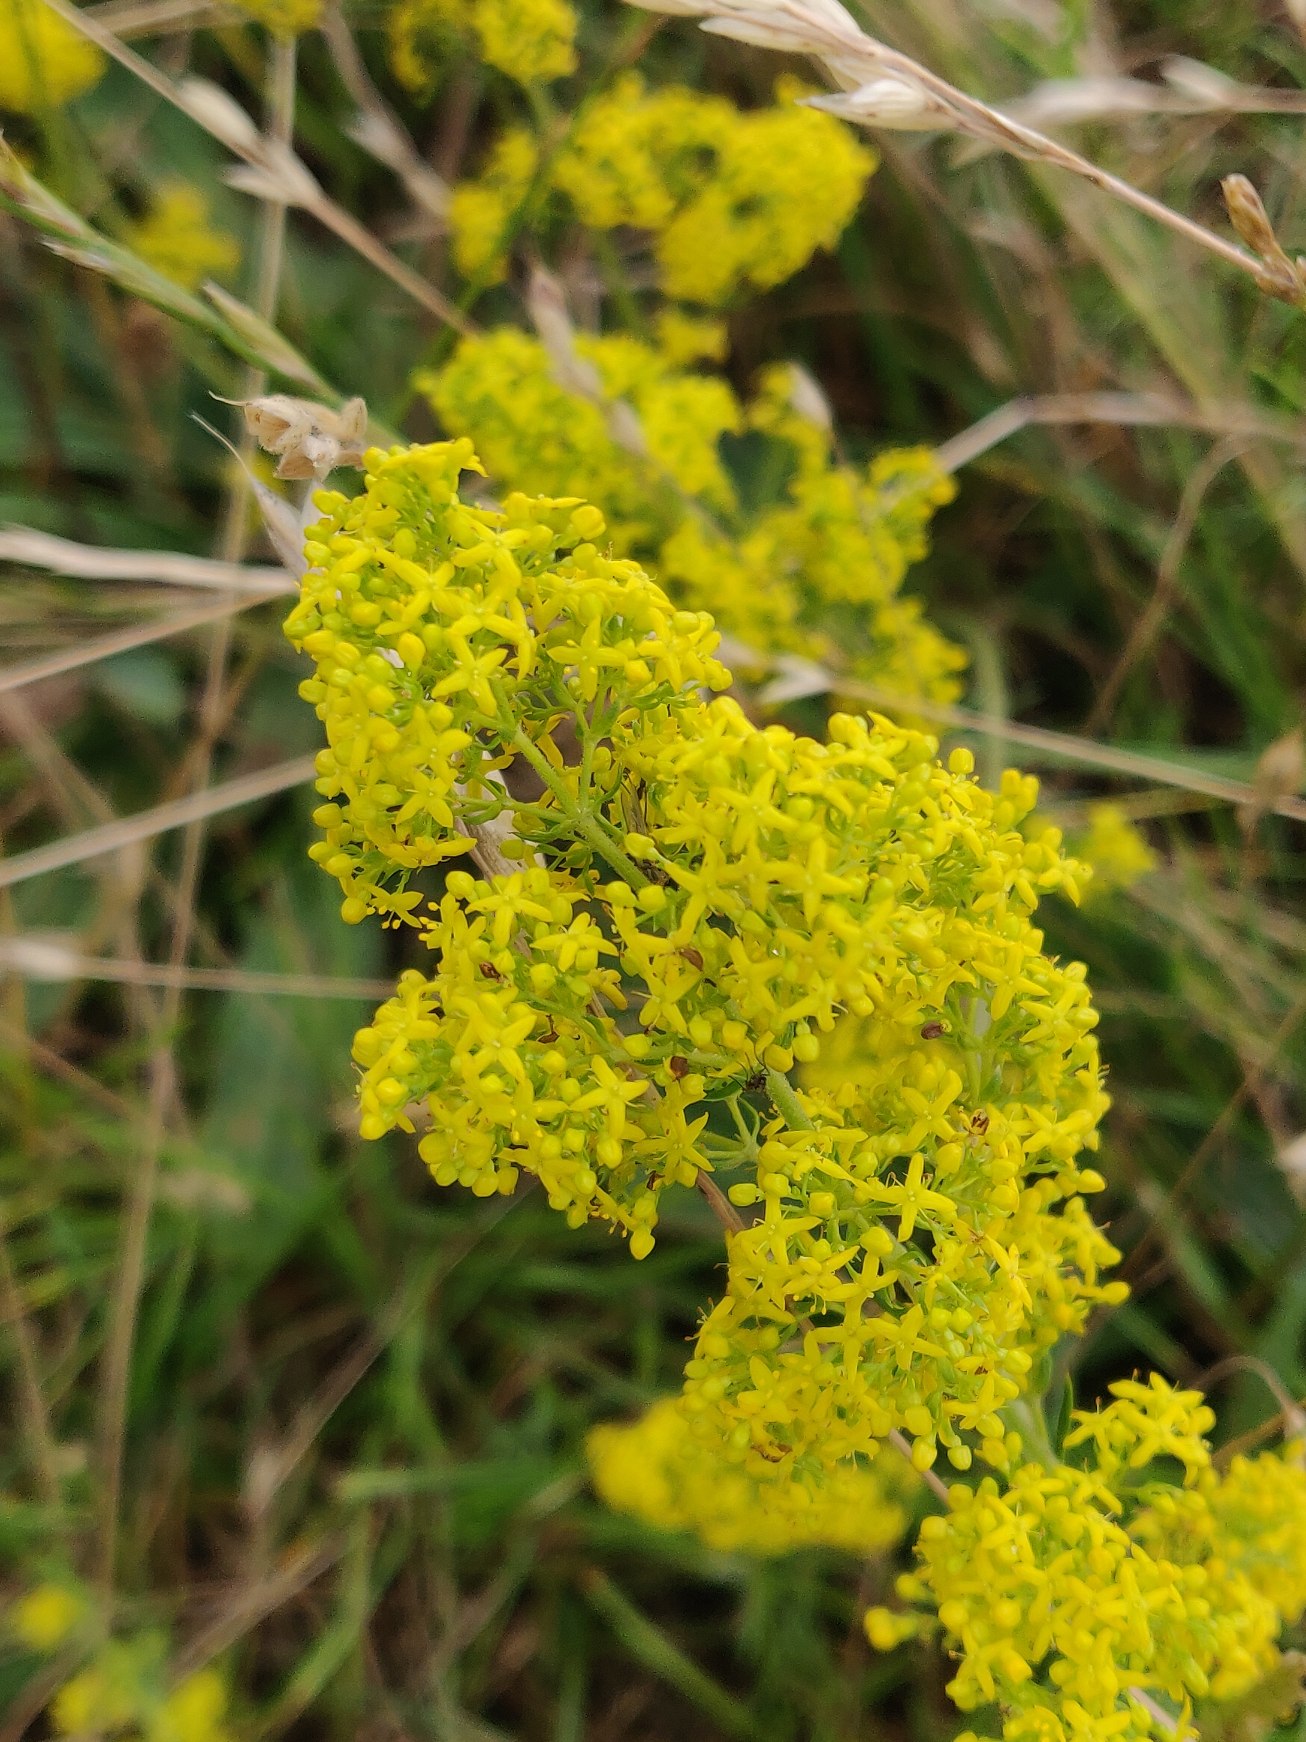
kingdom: Plantae
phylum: Tracheophyta
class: Magnoliopsida
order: Gentianales
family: Rubiaceae
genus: Galium
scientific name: Galium verum
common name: Gul snerre
